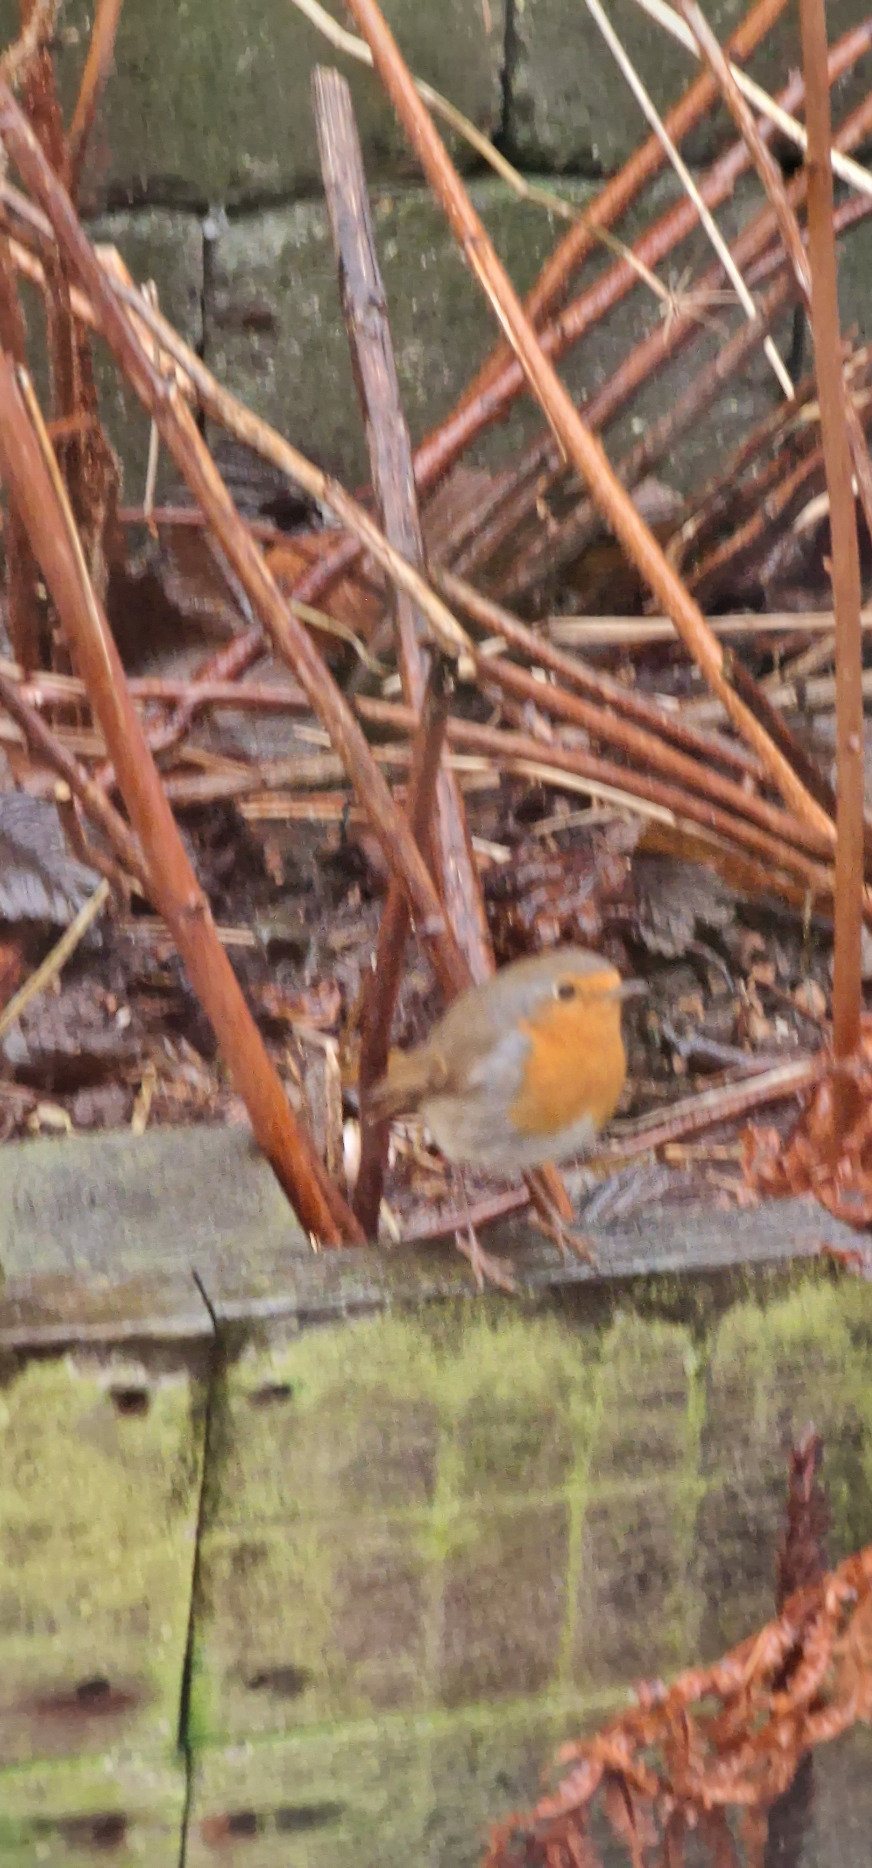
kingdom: Animalia
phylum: Chordata
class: Aves
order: Passeriformes
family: Muscicapidae
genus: Erithacus
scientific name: Erithacus rubecula
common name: Rødhals/rødkælk
